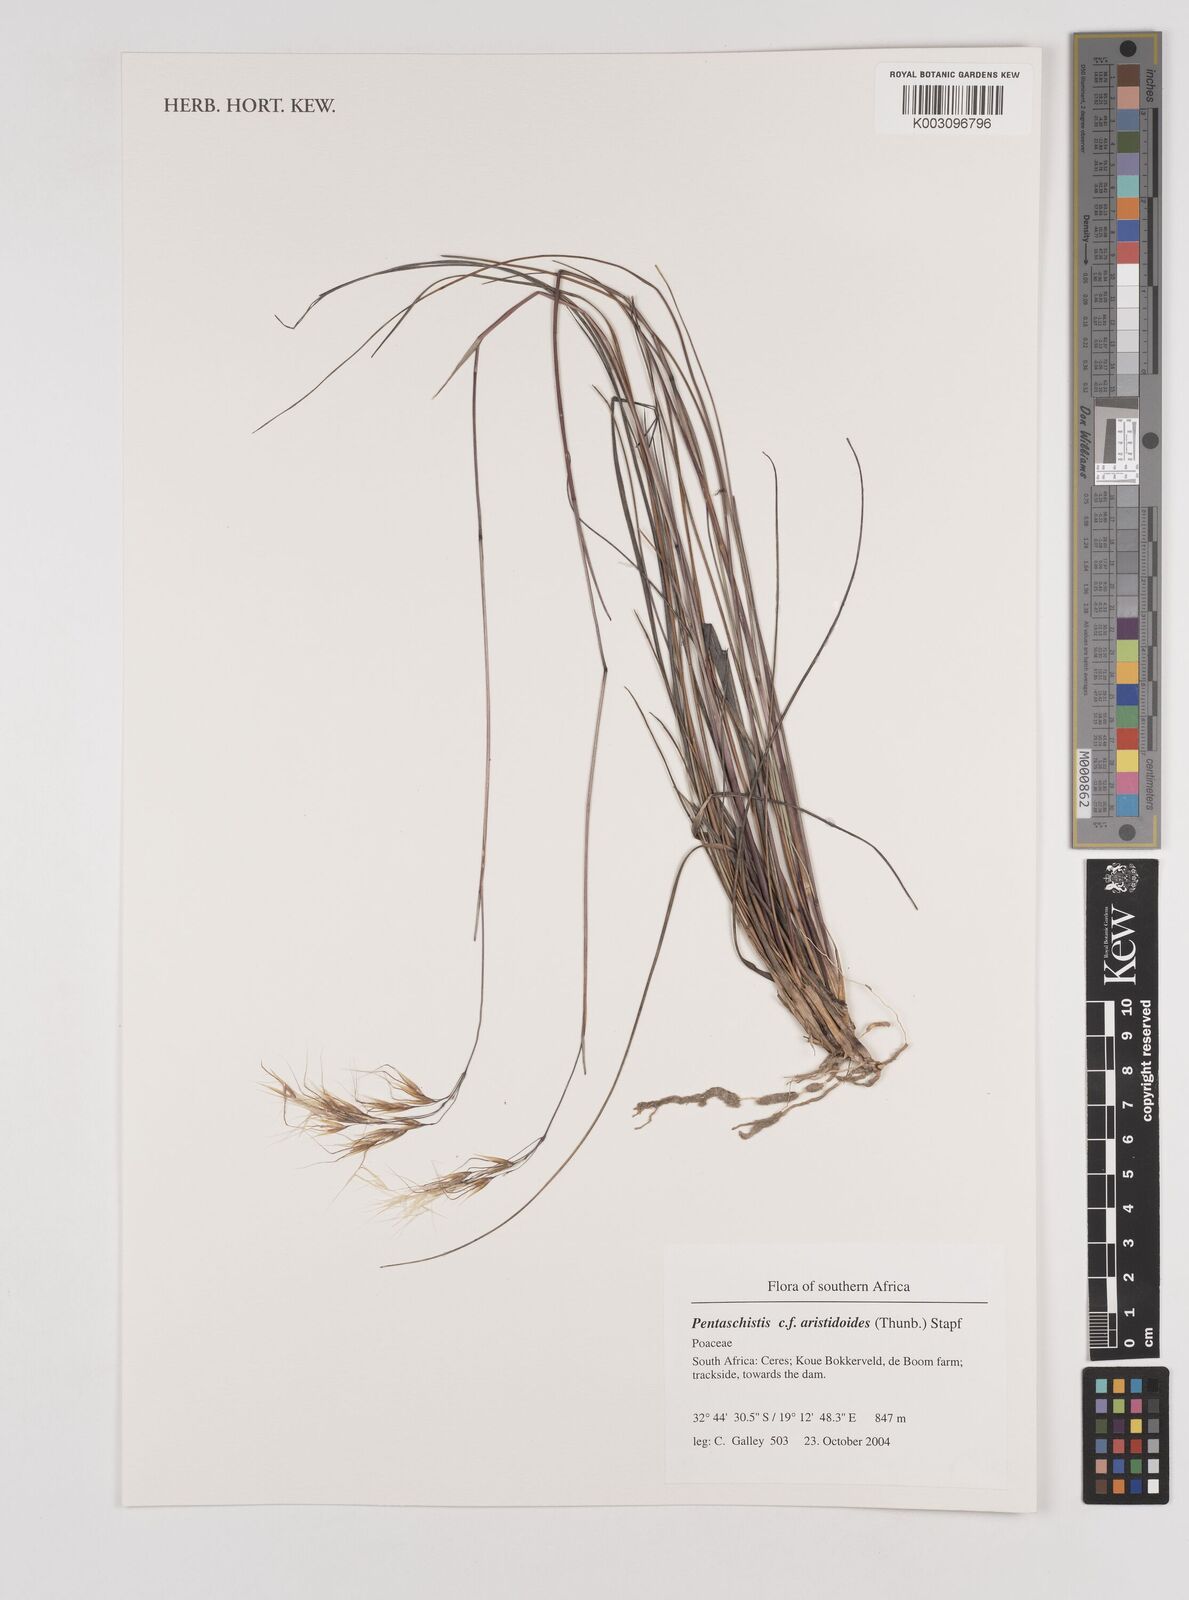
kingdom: Plantae
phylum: Tracheophyta
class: Liliopsida
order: Poales
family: Poaceae
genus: Pentameris
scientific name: Pentameris aristidoides
